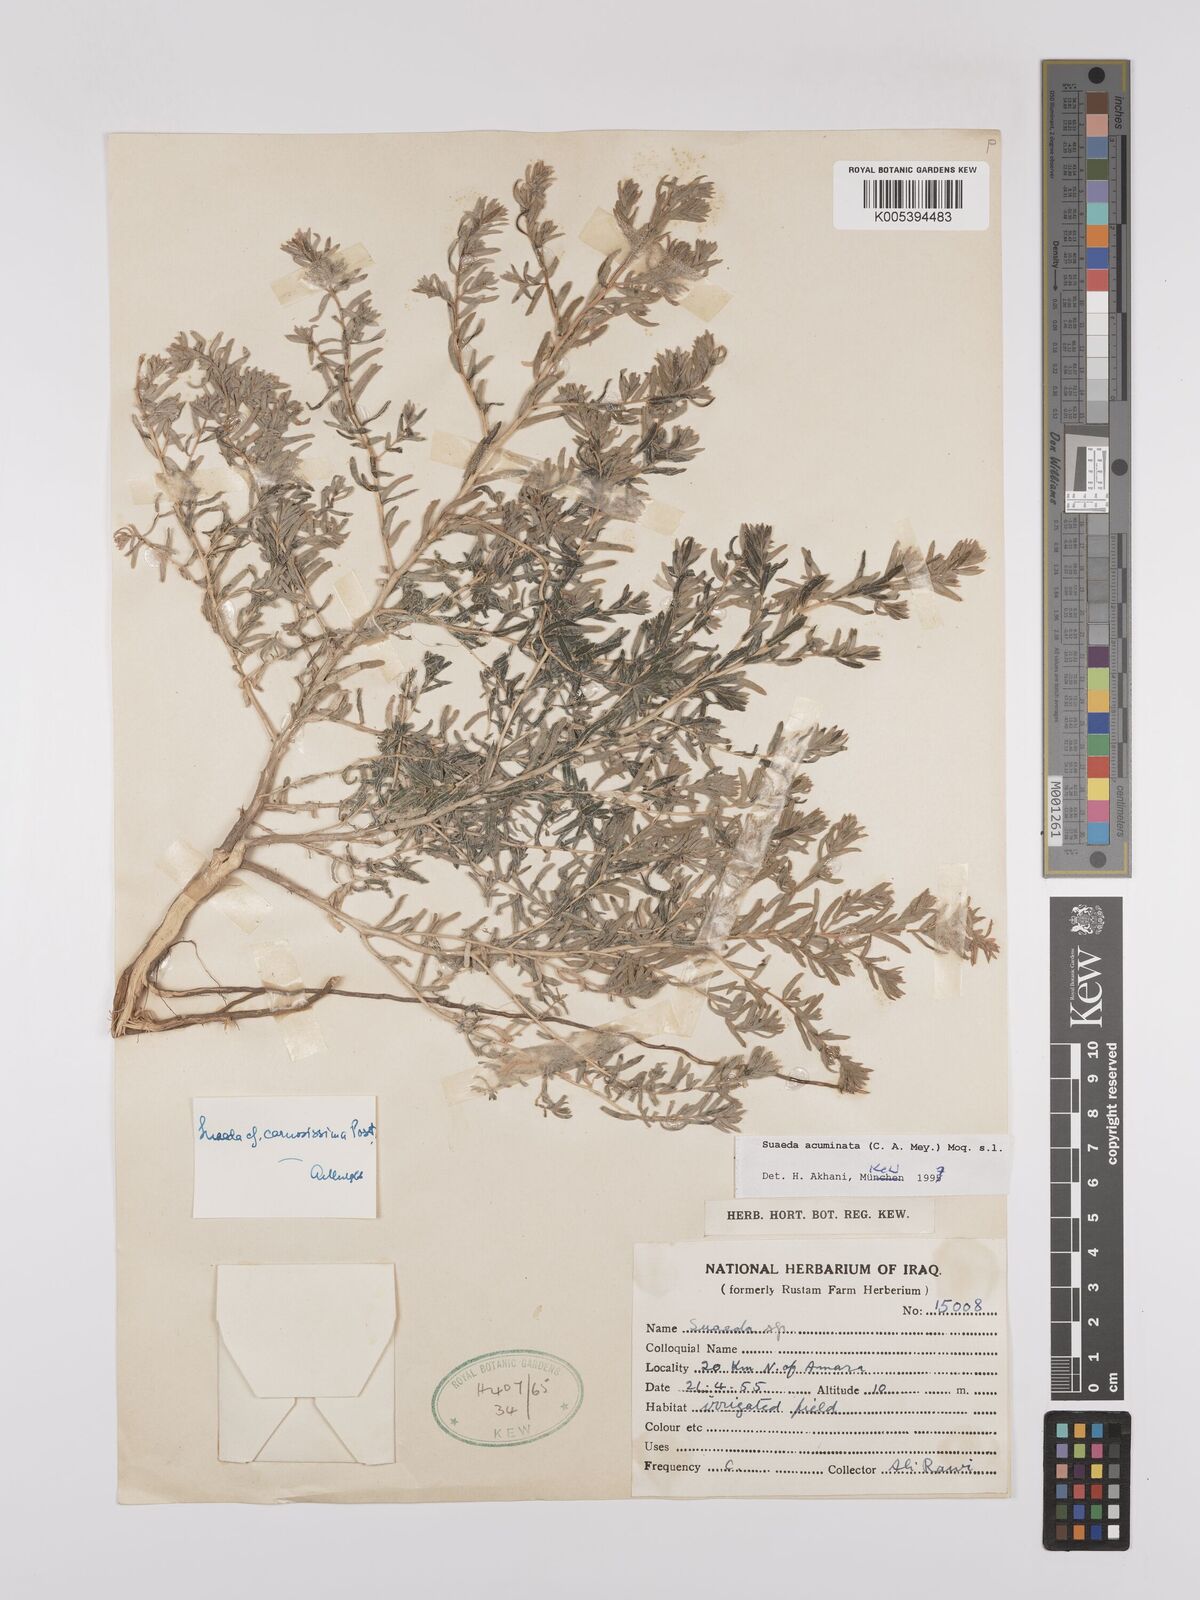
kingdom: Plantae
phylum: Tracheophyta
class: Magnoliopsida
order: Caryophyllales
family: Amaranthaceae
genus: Suaeda
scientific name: Suaeda acuminata
